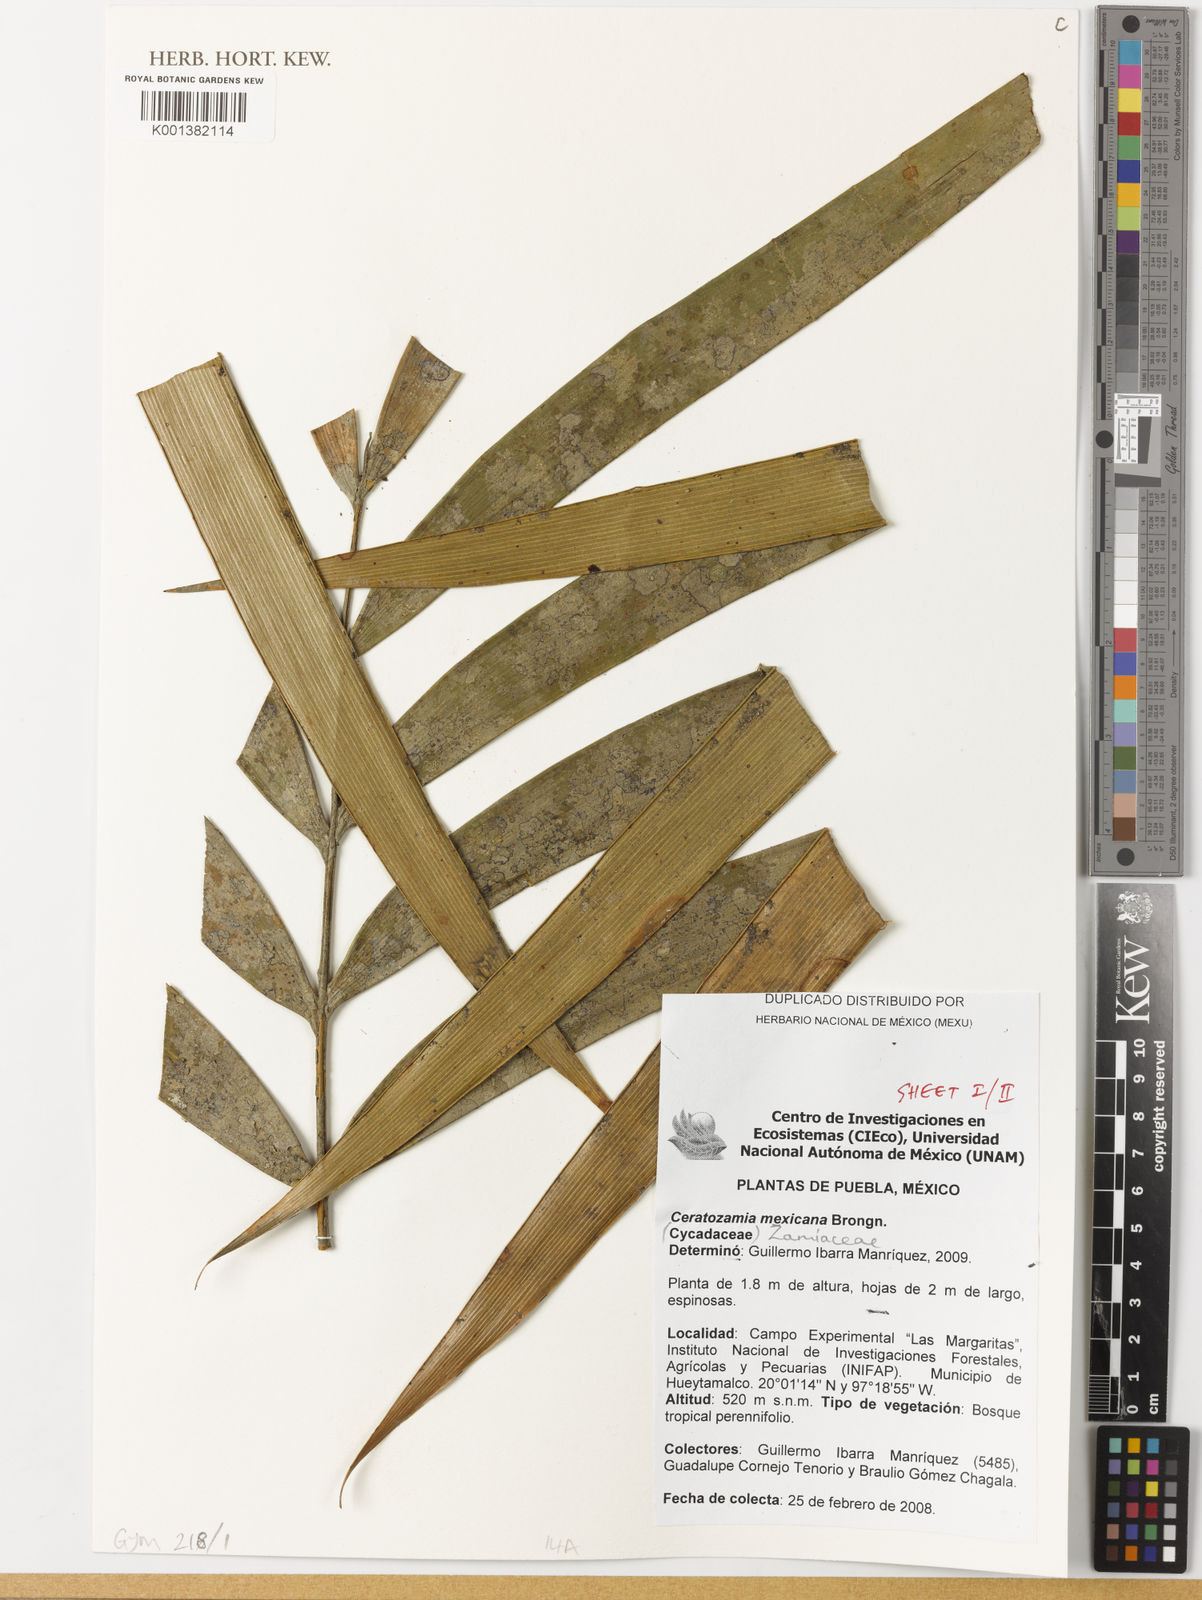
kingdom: Plantae
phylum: Tracheophyta
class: Cycadopsida
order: Cycadales
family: Zamiaceae
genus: Ceratozamia
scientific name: Ceratozamia mexicana
